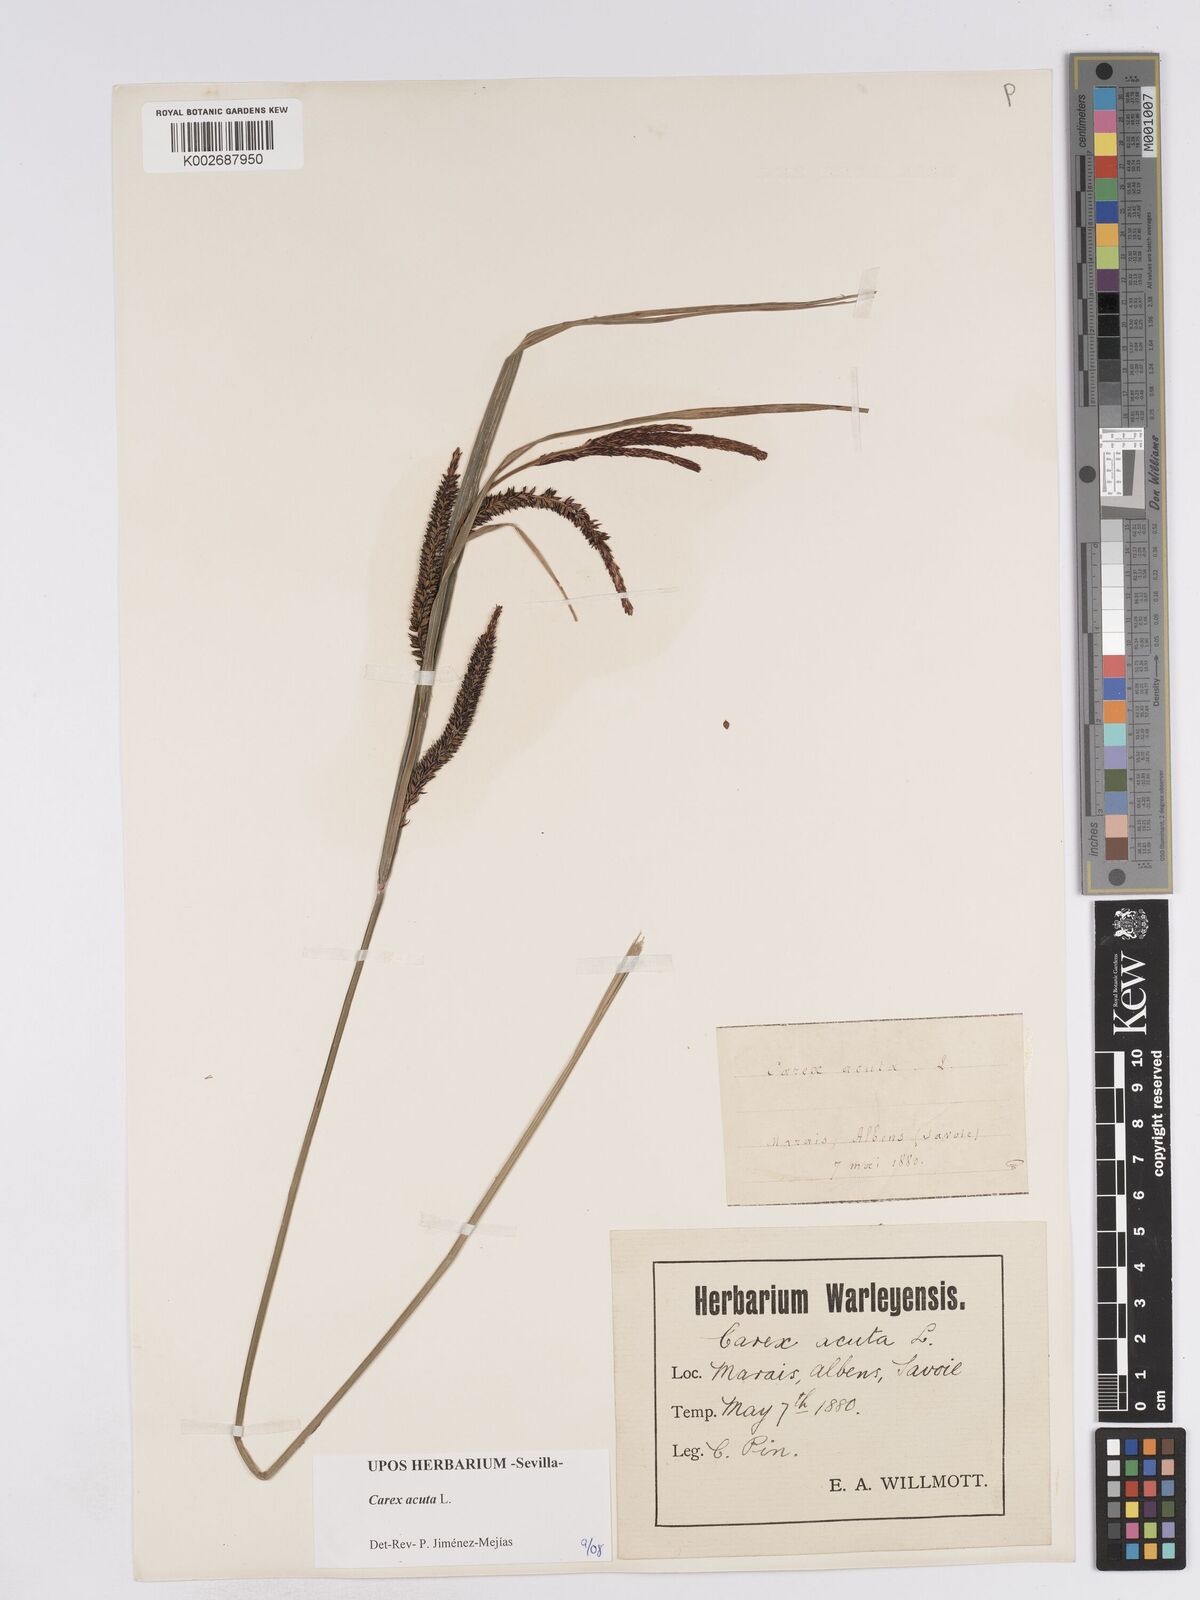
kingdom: Plantae
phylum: Tracheophyta
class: Liliopsida
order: Poales
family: Cyperaceae
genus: Carex
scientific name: Carex acuta
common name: Slender tufted-sedge
